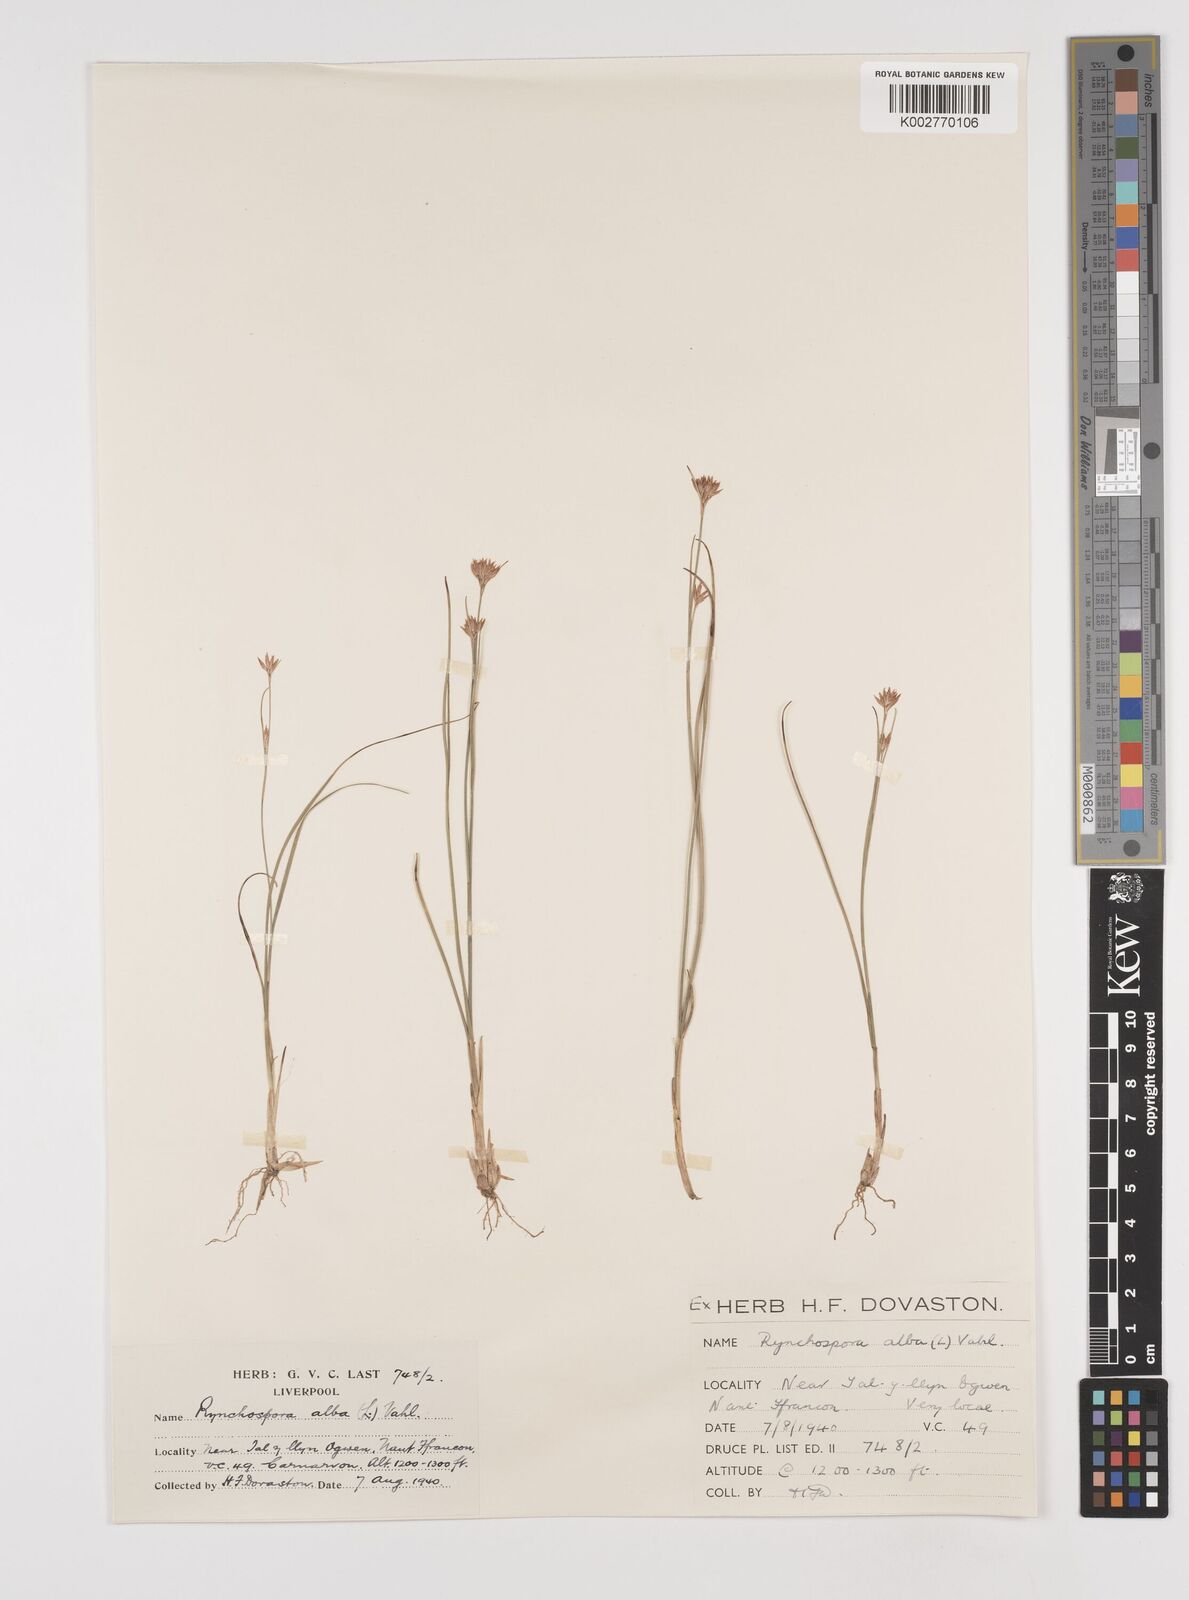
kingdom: Plantae
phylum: Tracheophyta
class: Liliopsida
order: Poales
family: Cyperaceae
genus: Rhynchospora
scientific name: Rhynchospora alba
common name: White beak-sedge
